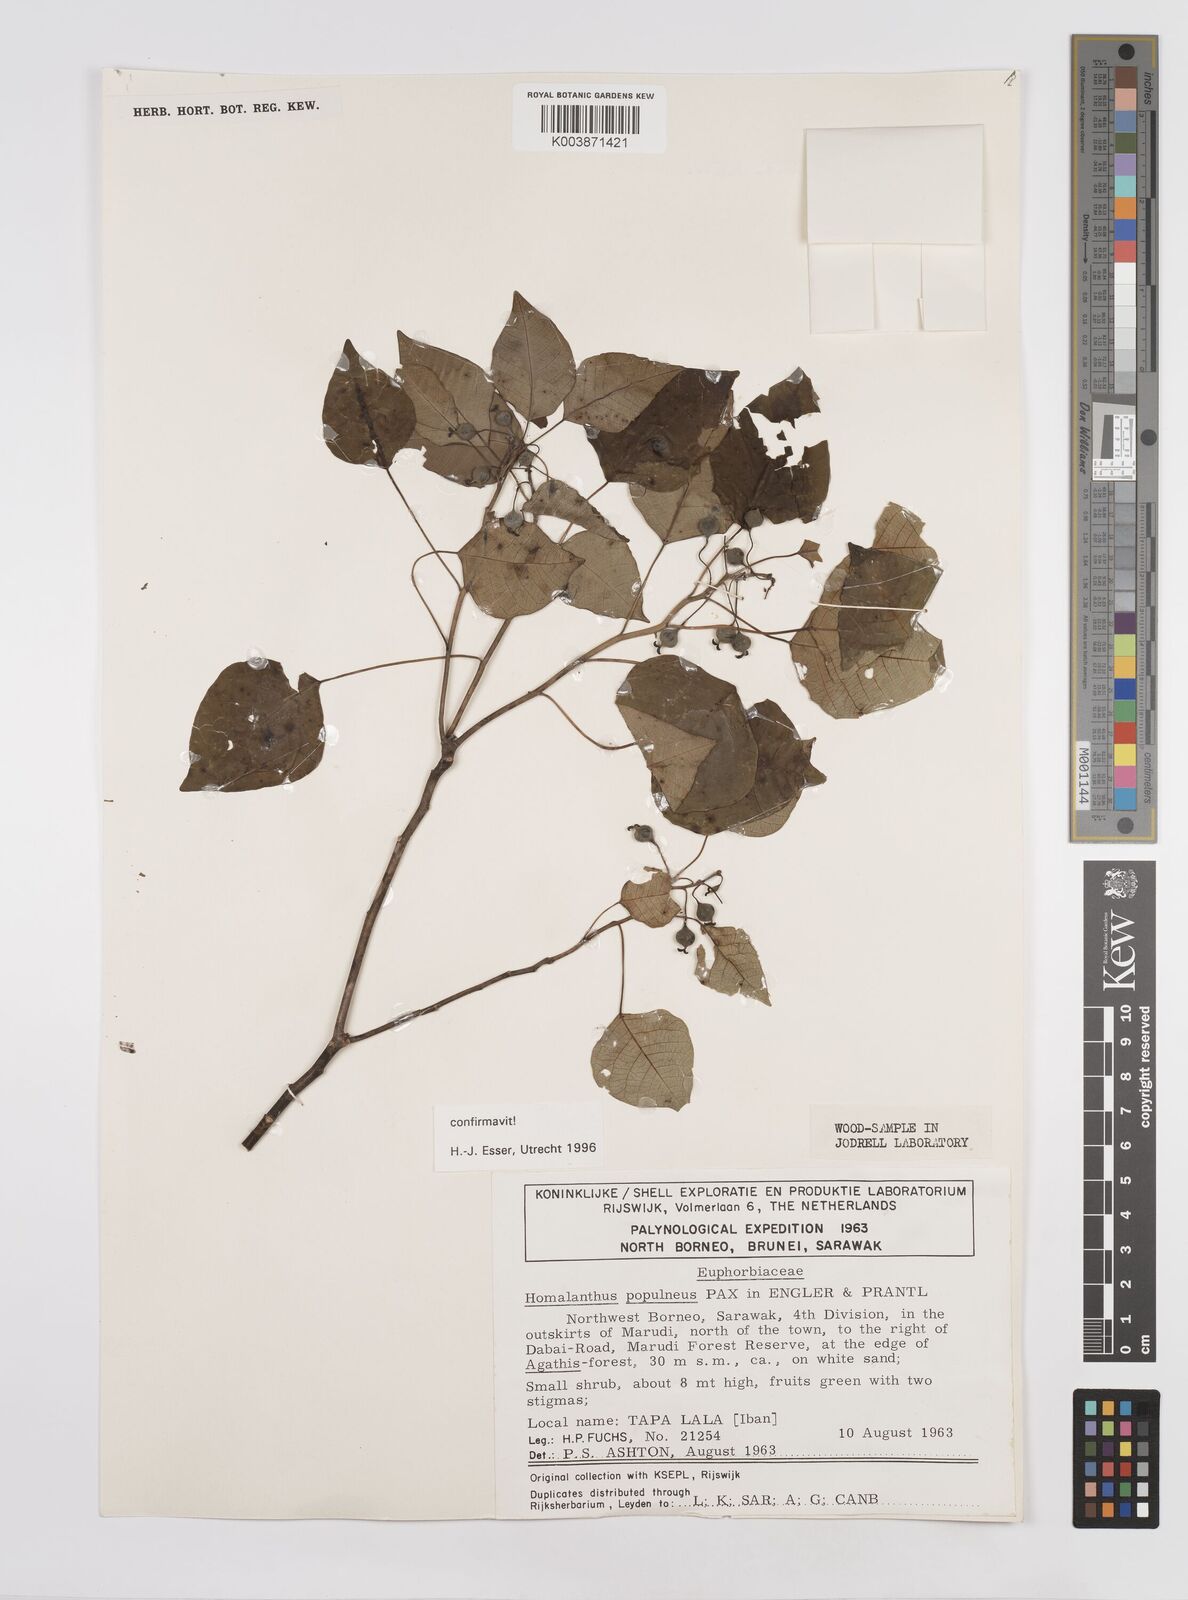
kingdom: Plantae
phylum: Tracheophyta
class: Magnoliopsida
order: Malpighiales
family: Euphorbiaceae
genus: Homalanthus
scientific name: Homalanthus populneus
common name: Spurge
